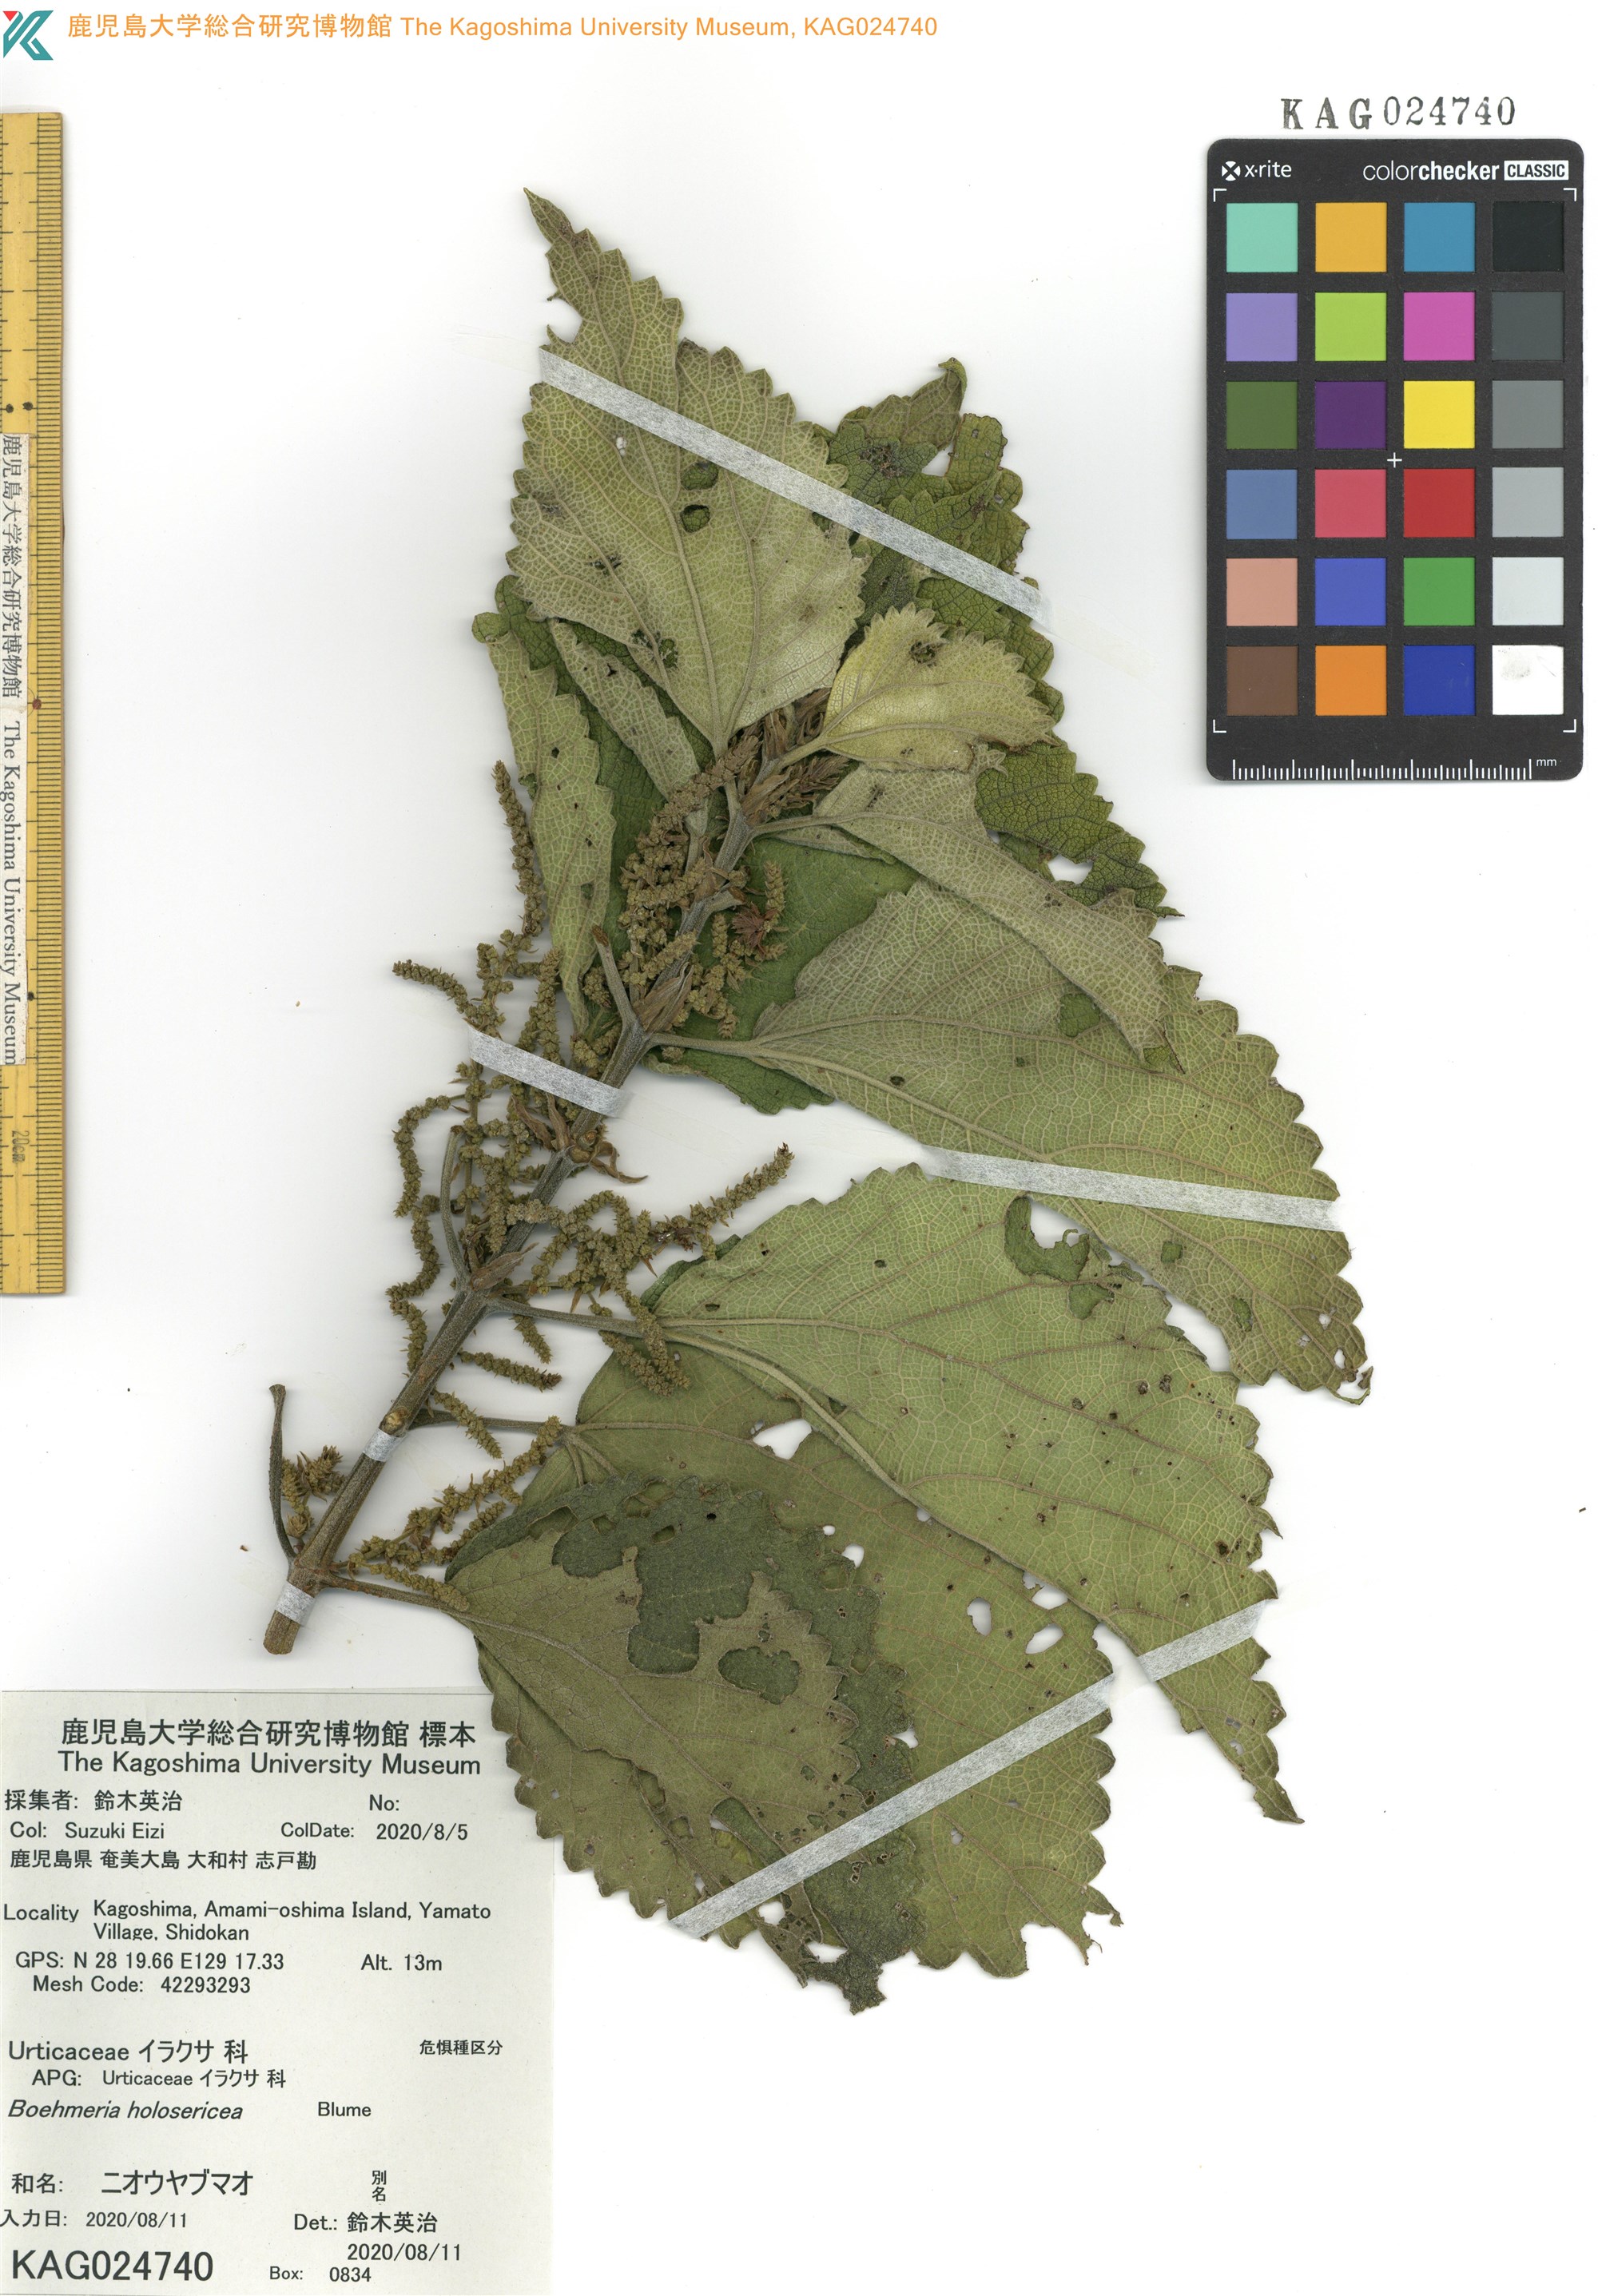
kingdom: Plantae
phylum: Tracheophyta
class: Magnoliopsida
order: Rosales
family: Urticaceae
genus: Boehmeria
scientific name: Boehmeria holosericea
